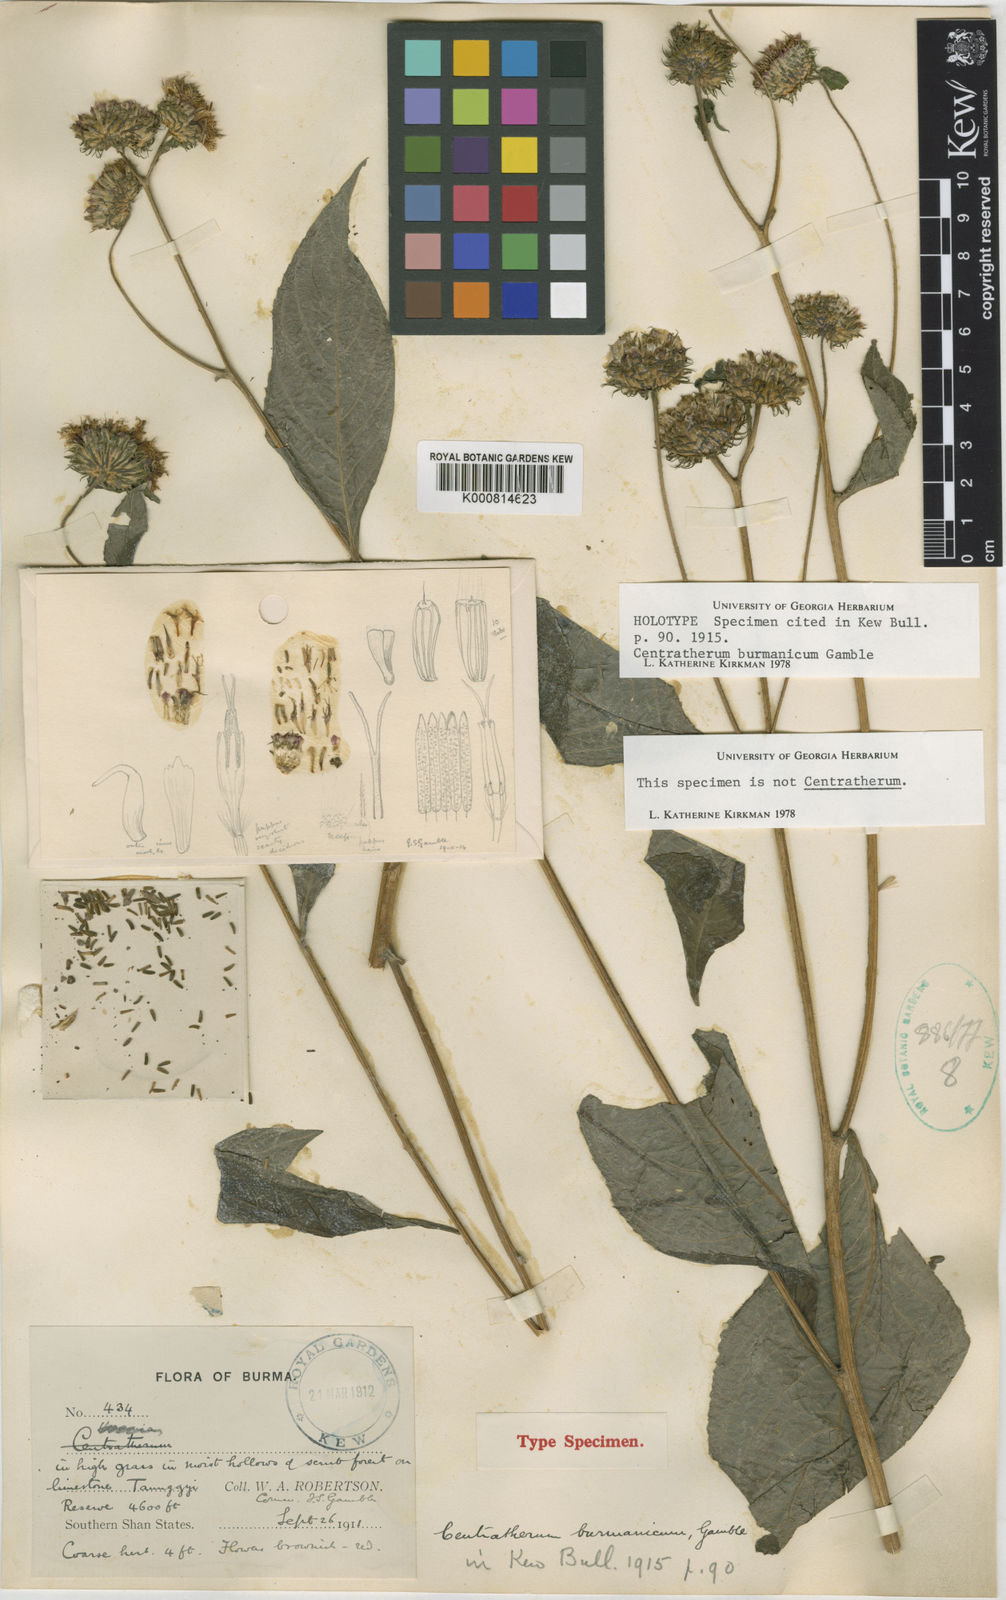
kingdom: Plantae
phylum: Tracheophyta
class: Magnoliopsida
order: Asterales
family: Asteraceae
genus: Phyllocephalum
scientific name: Phyllocephalum
